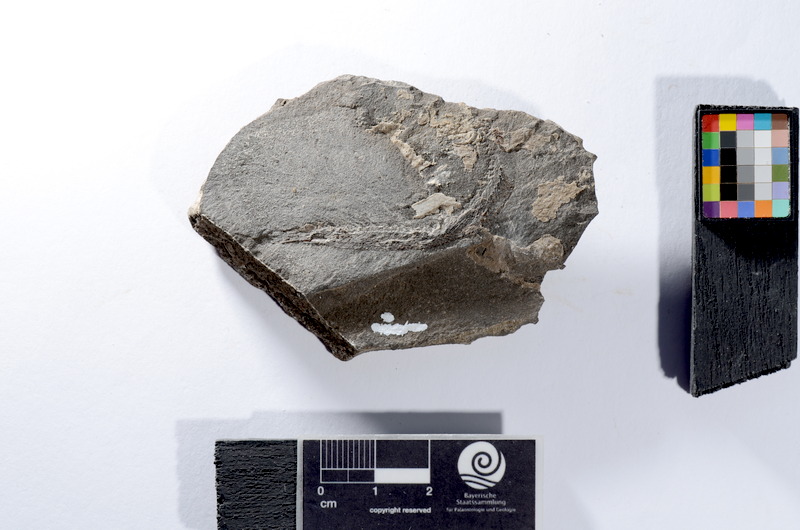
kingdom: Animalia
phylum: Chordata
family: Leptolepididae
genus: Leptolepis
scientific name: Leptolepis coryphaenoides
